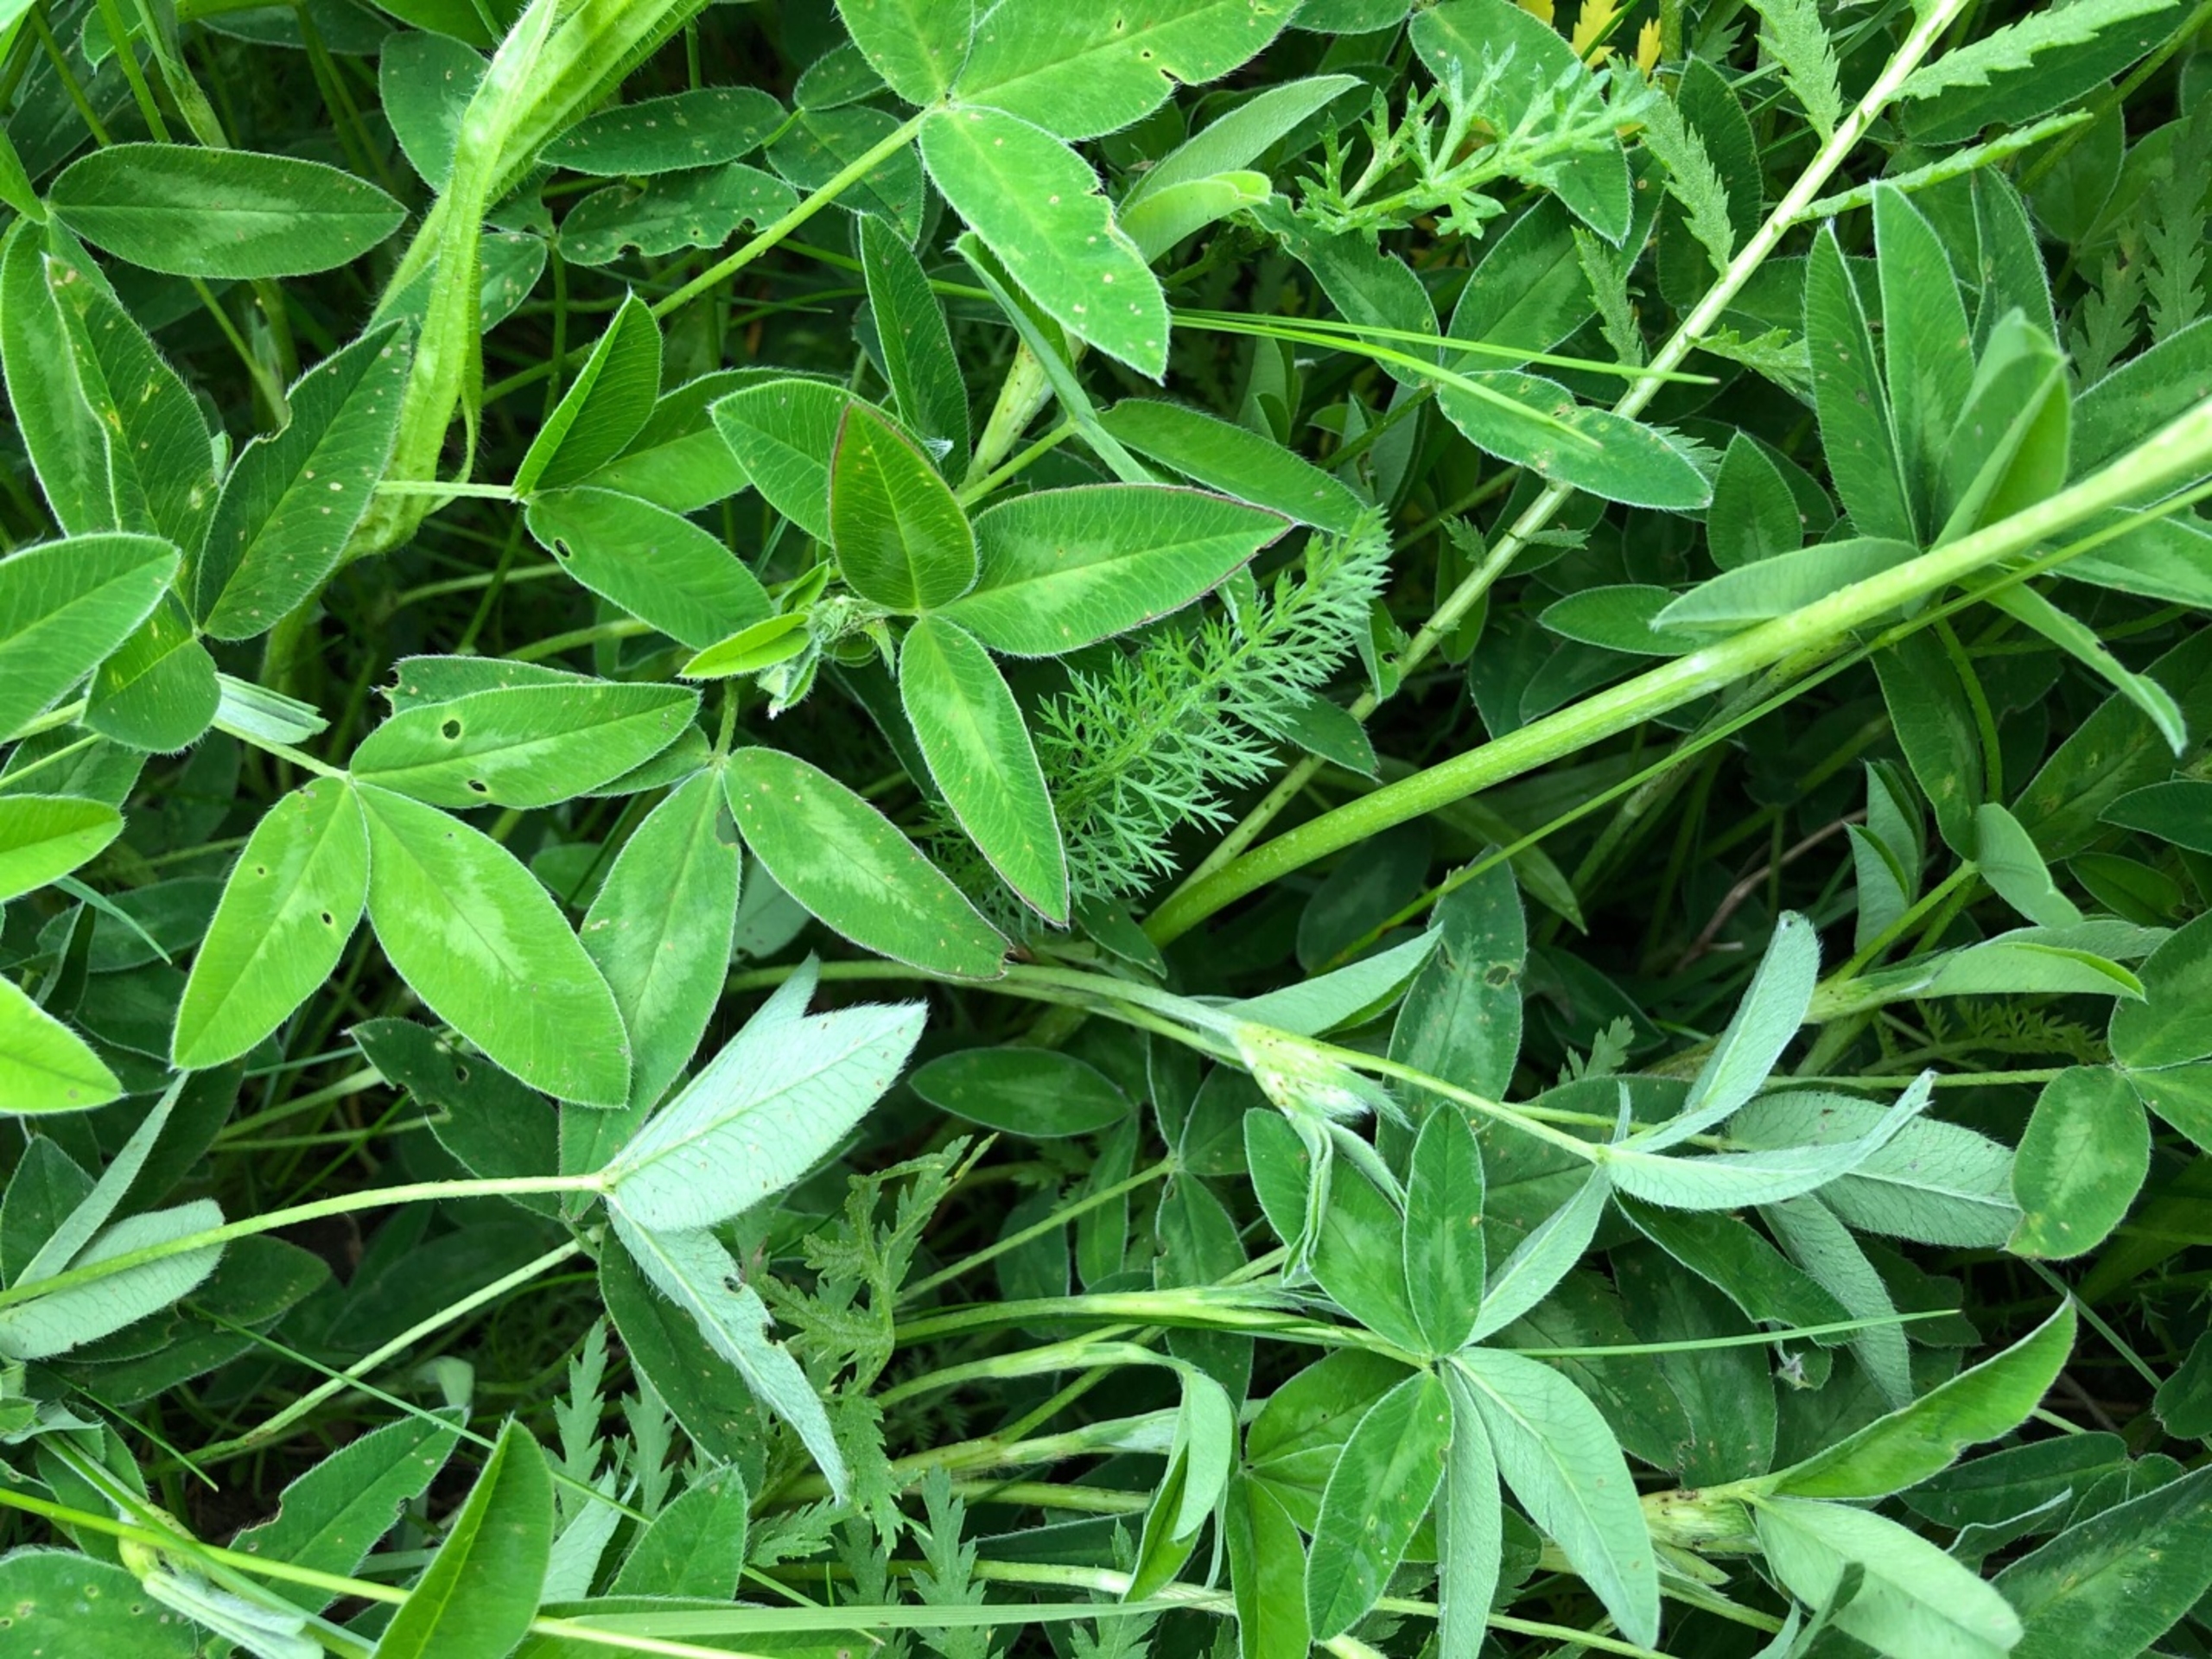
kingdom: Plantae
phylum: Tracheophyta
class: Magnoliopsida
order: Fabales
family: Fabaceae
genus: Trifolium
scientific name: Trifolium medium
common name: Bugtet kløver
